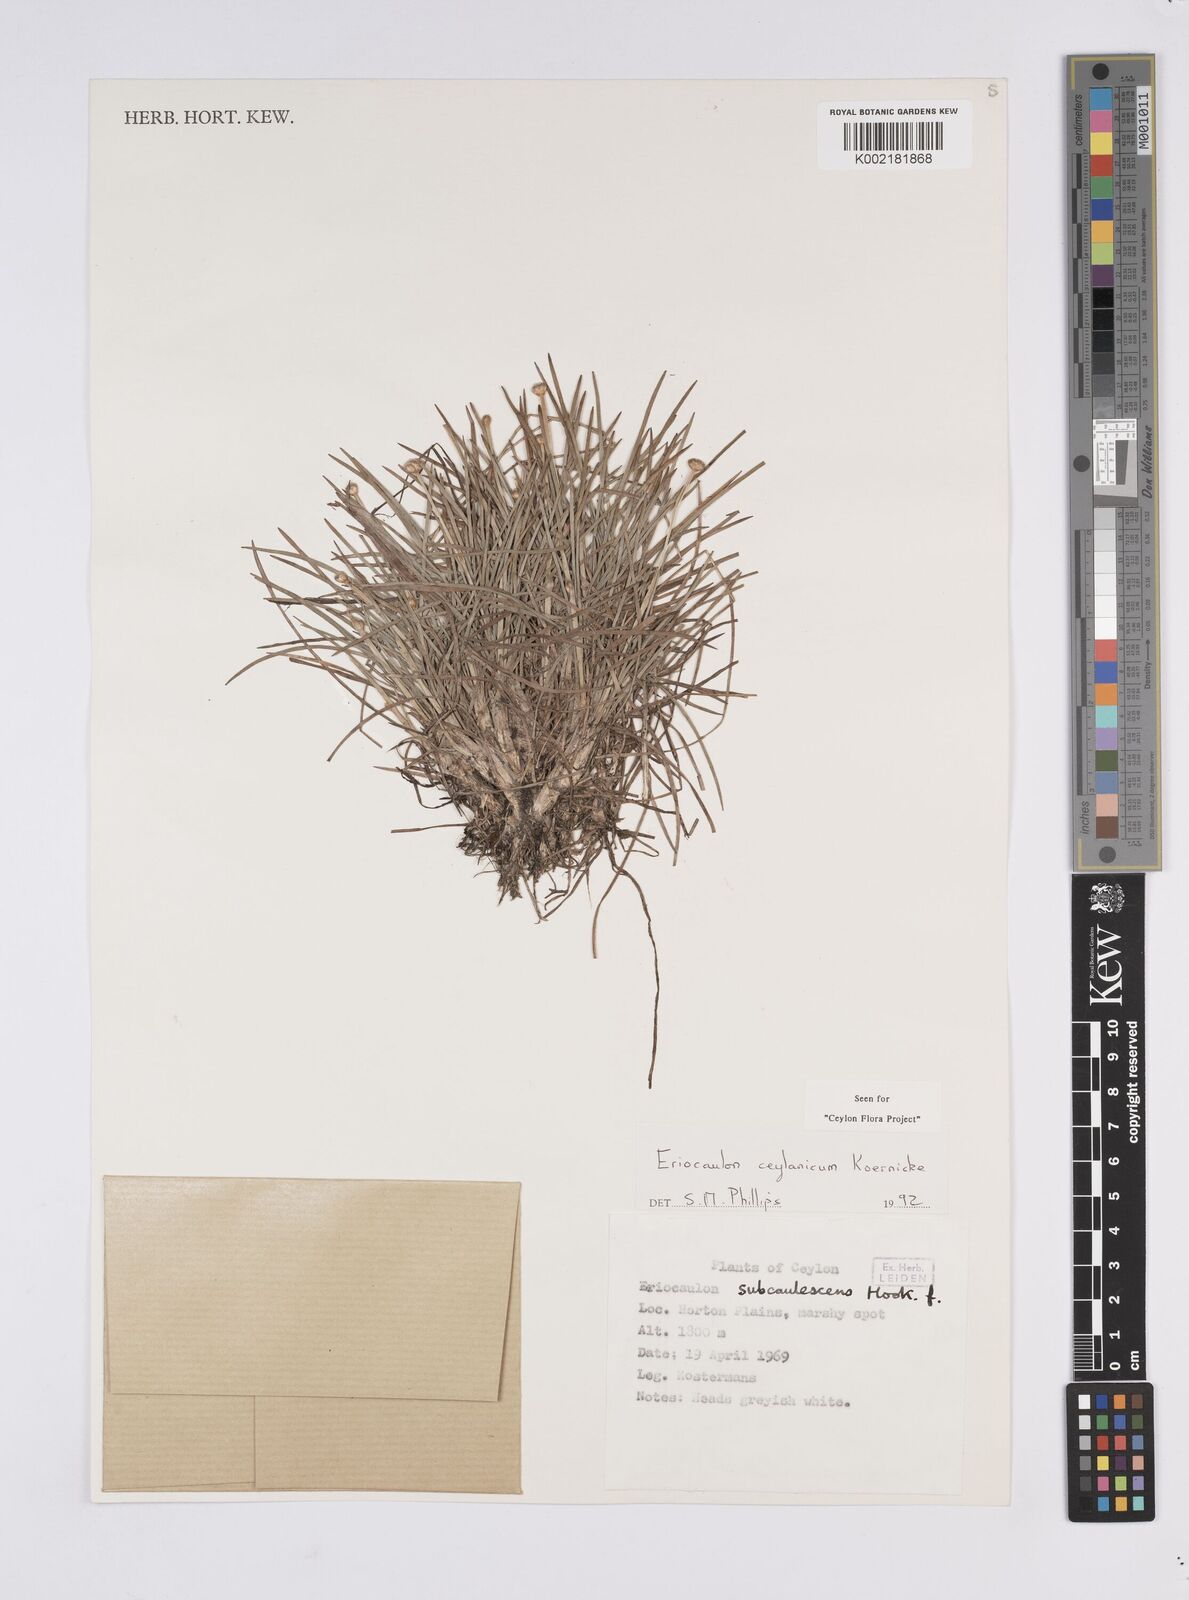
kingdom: Plantae
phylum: Tracheophyta
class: Liliopsida
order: Poales
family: Eriocaulaceae
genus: Eriocaulon
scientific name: Eriocaulon ceylanicum
